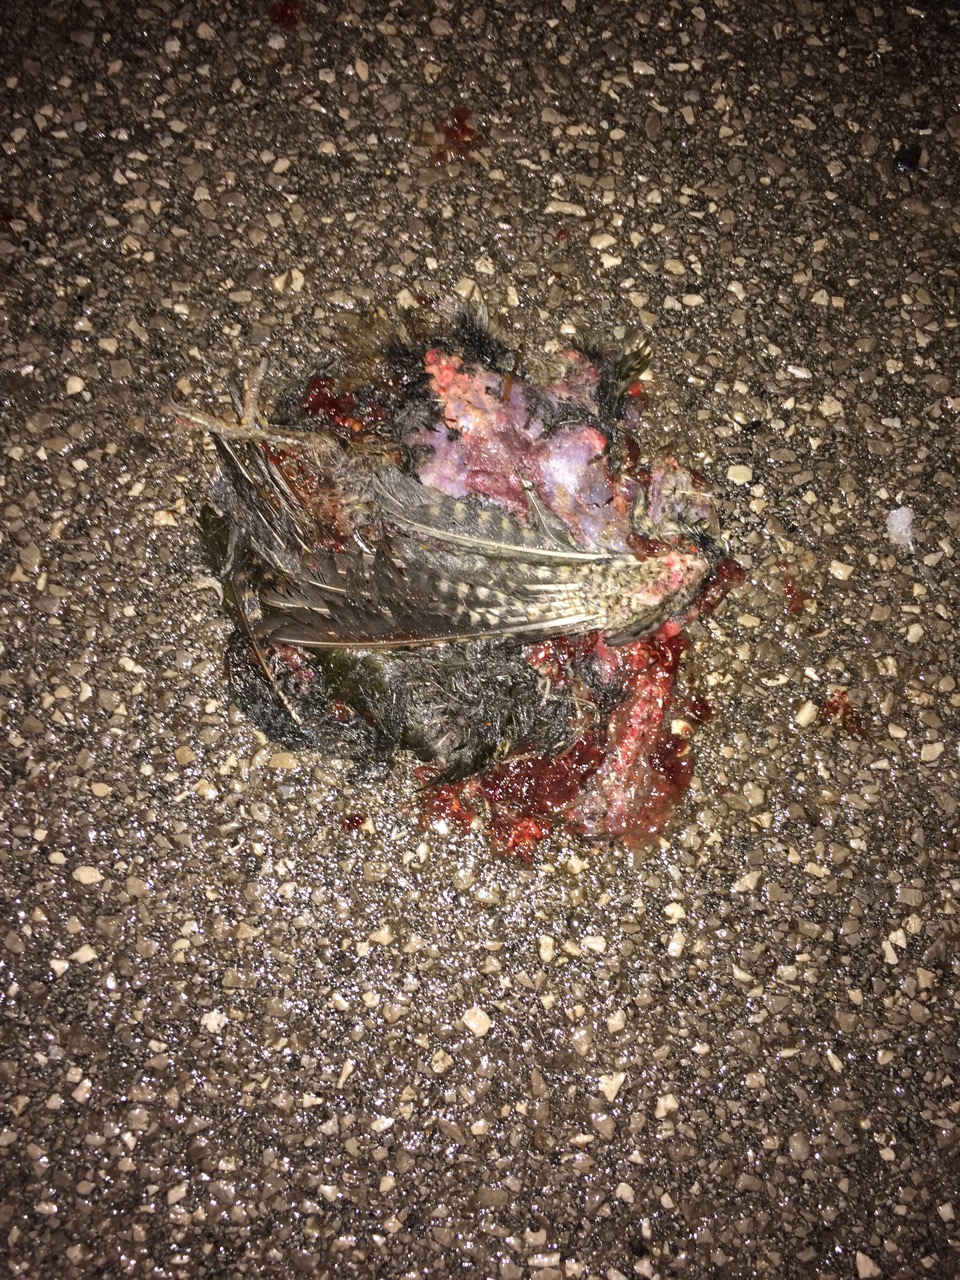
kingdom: Animalia
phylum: Chordata
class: Aves
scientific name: Aves
